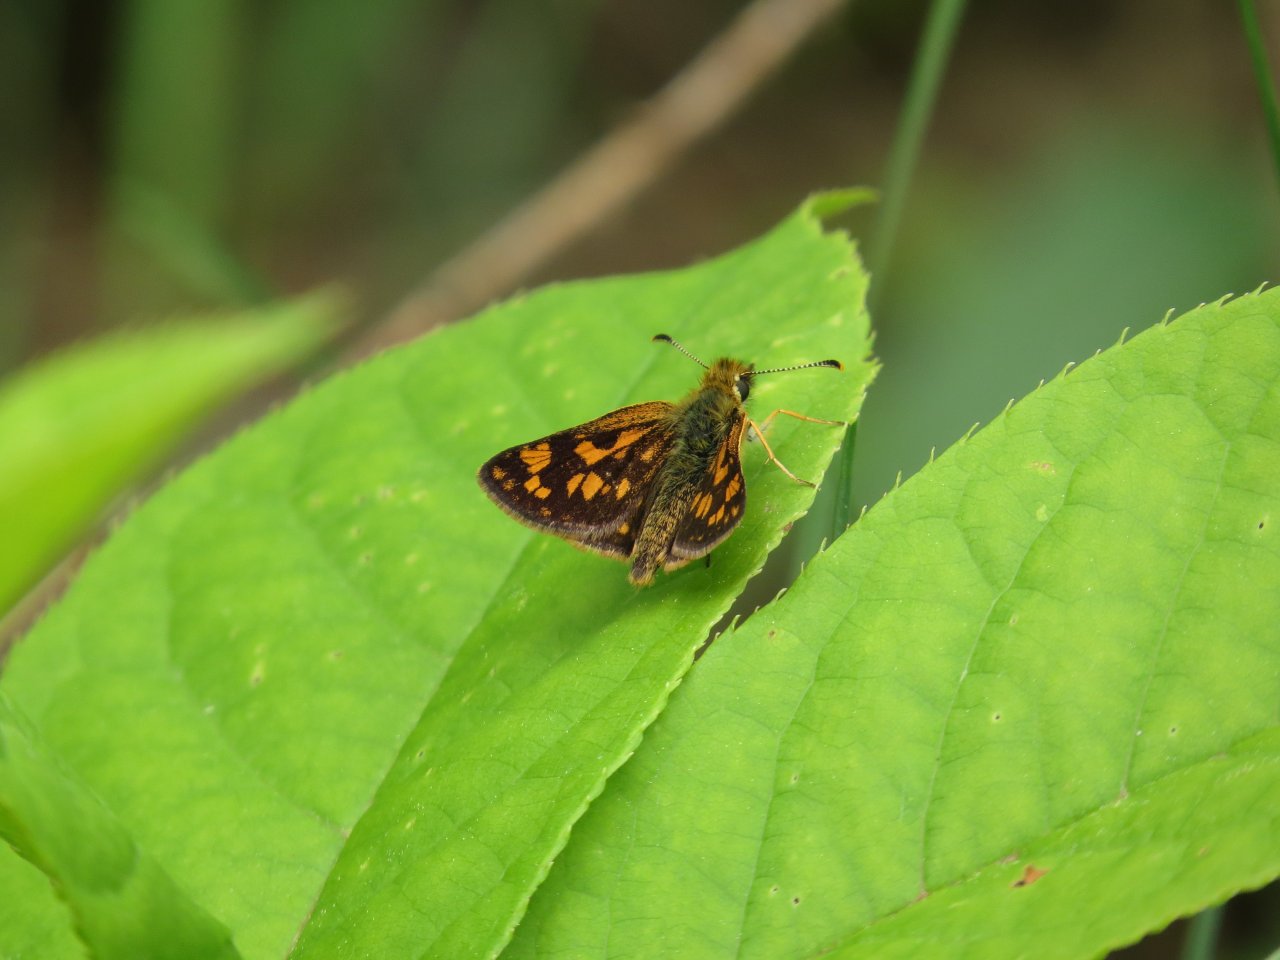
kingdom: Animalia
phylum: Arthropoda
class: Insecta
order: Lepidoptera
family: Hesperiidae
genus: Carterocephalus
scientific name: Carterocephalus palaemon
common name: Chequered Skipper
